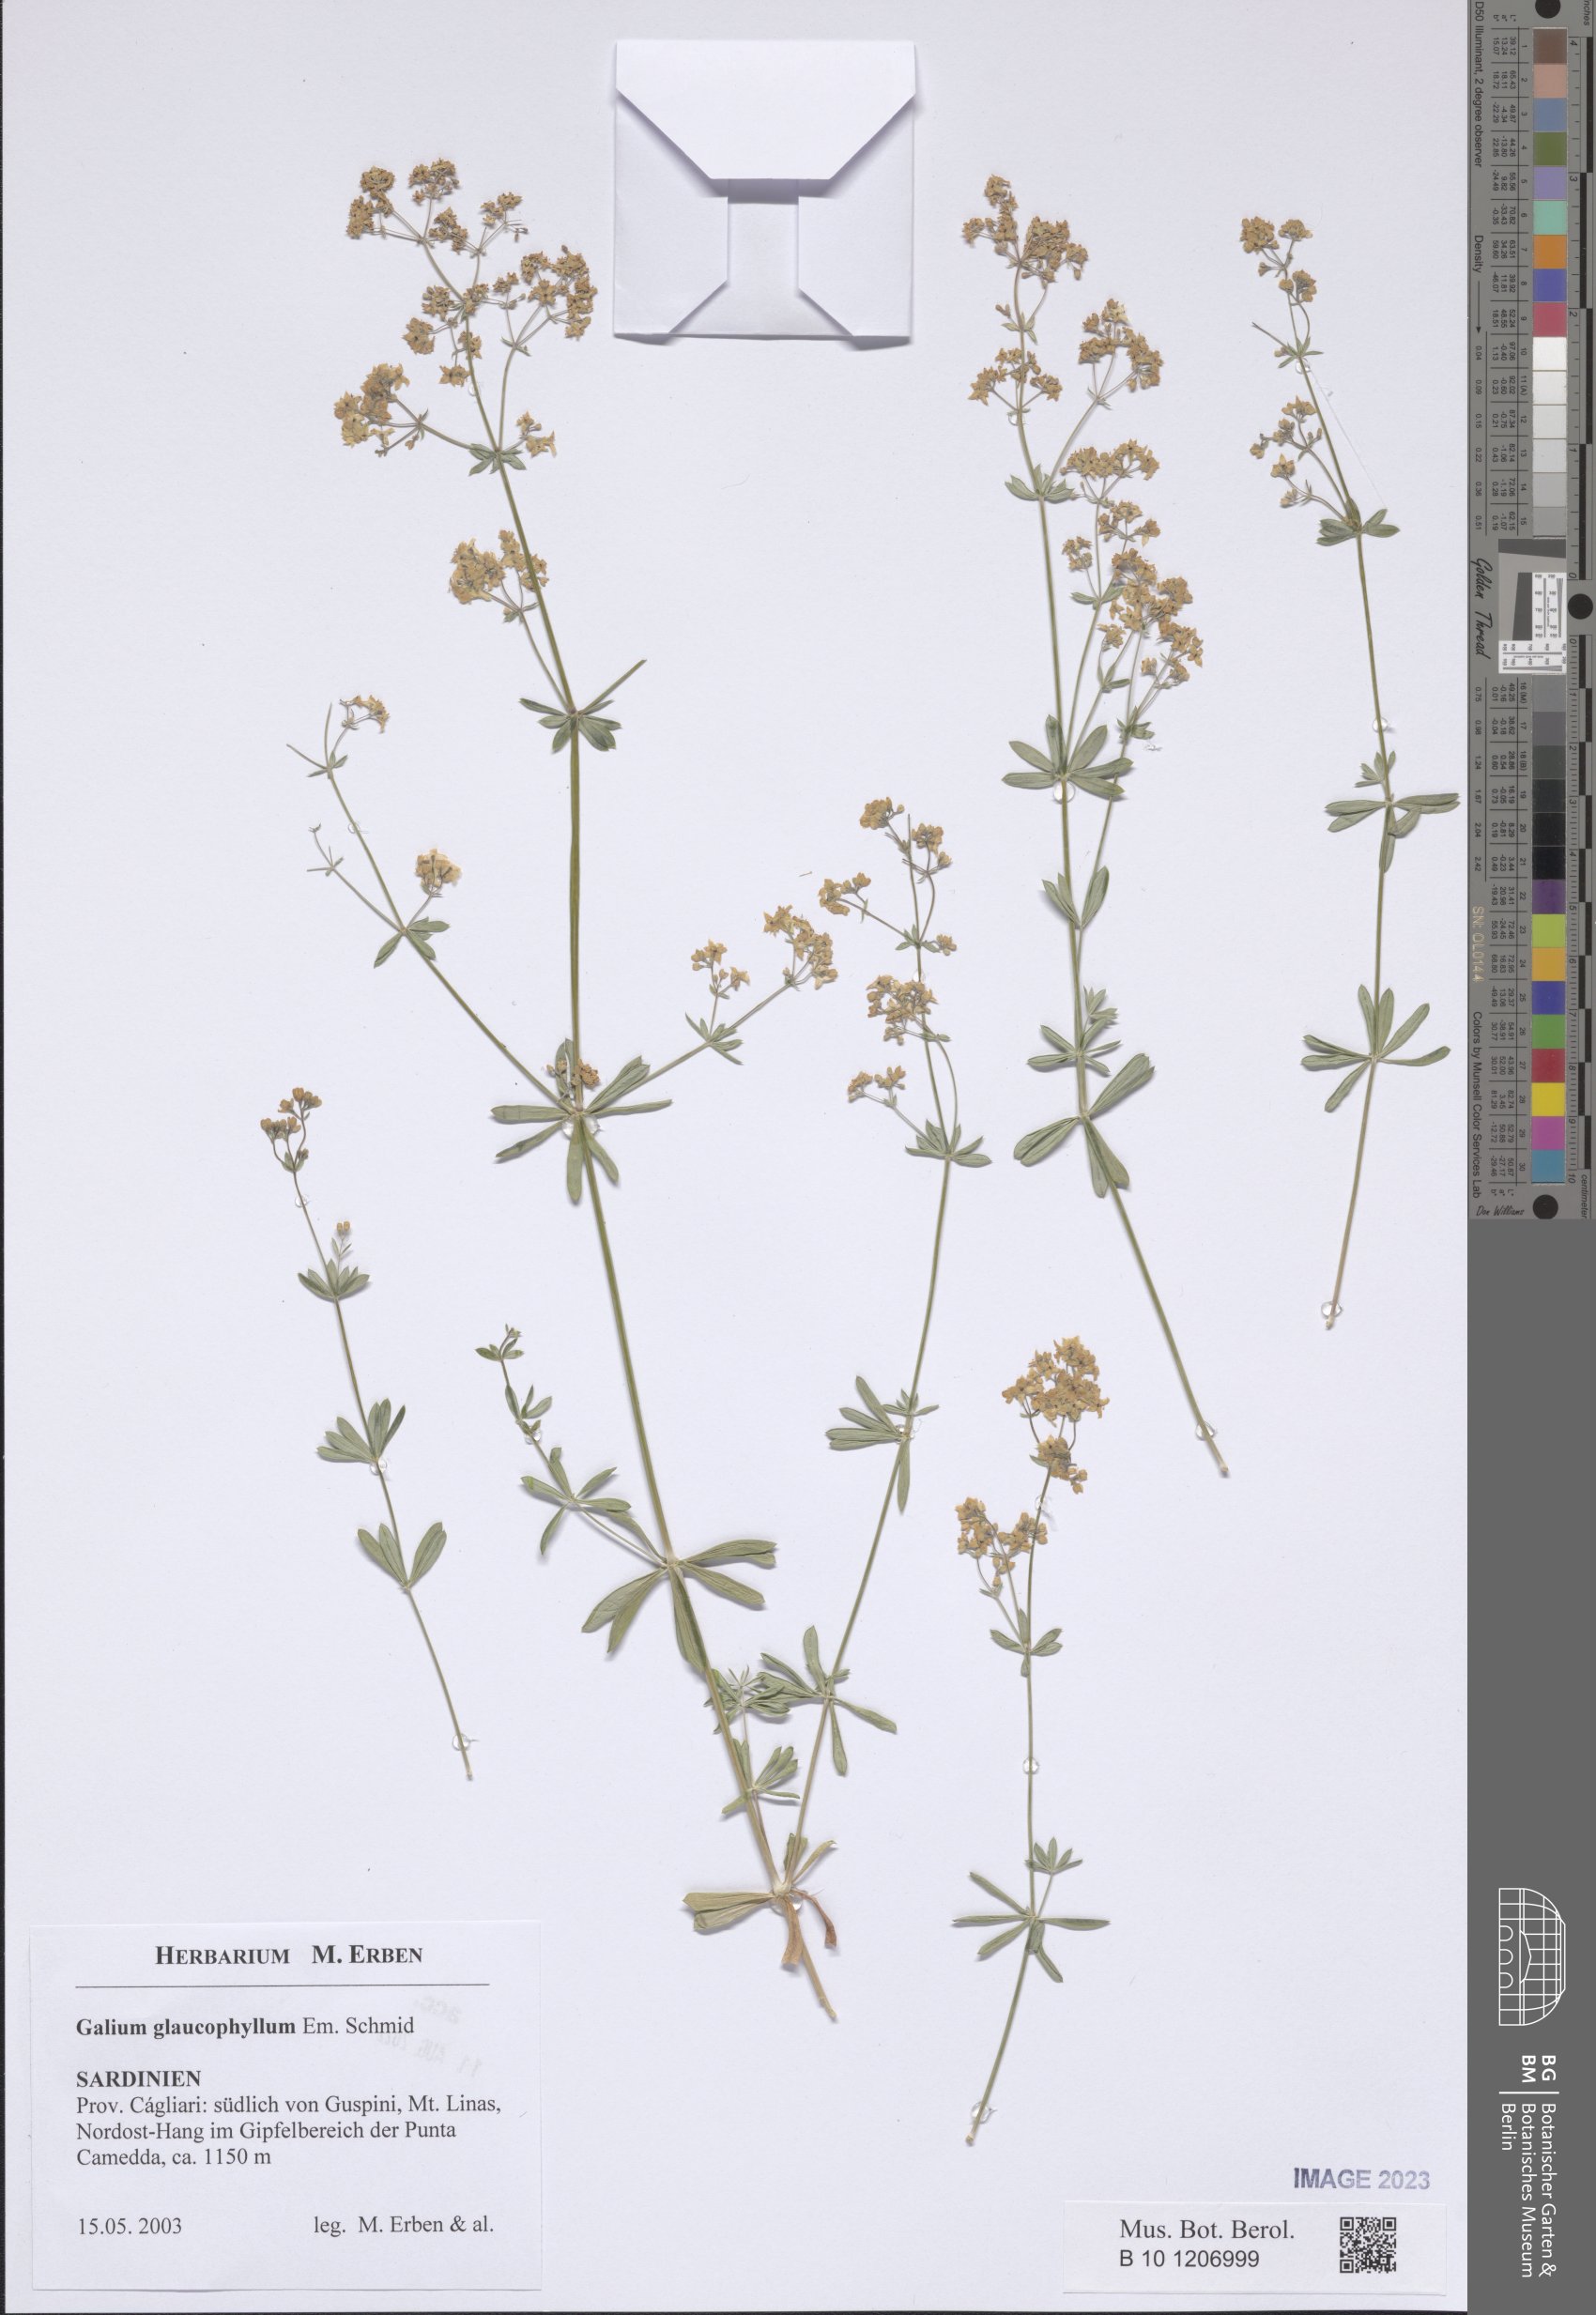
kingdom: Plantae
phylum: Tracheophyta
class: Magnoliopsida
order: Gentianales
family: Rubiaceae
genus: Galium
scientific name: Galium glaucophyllum
